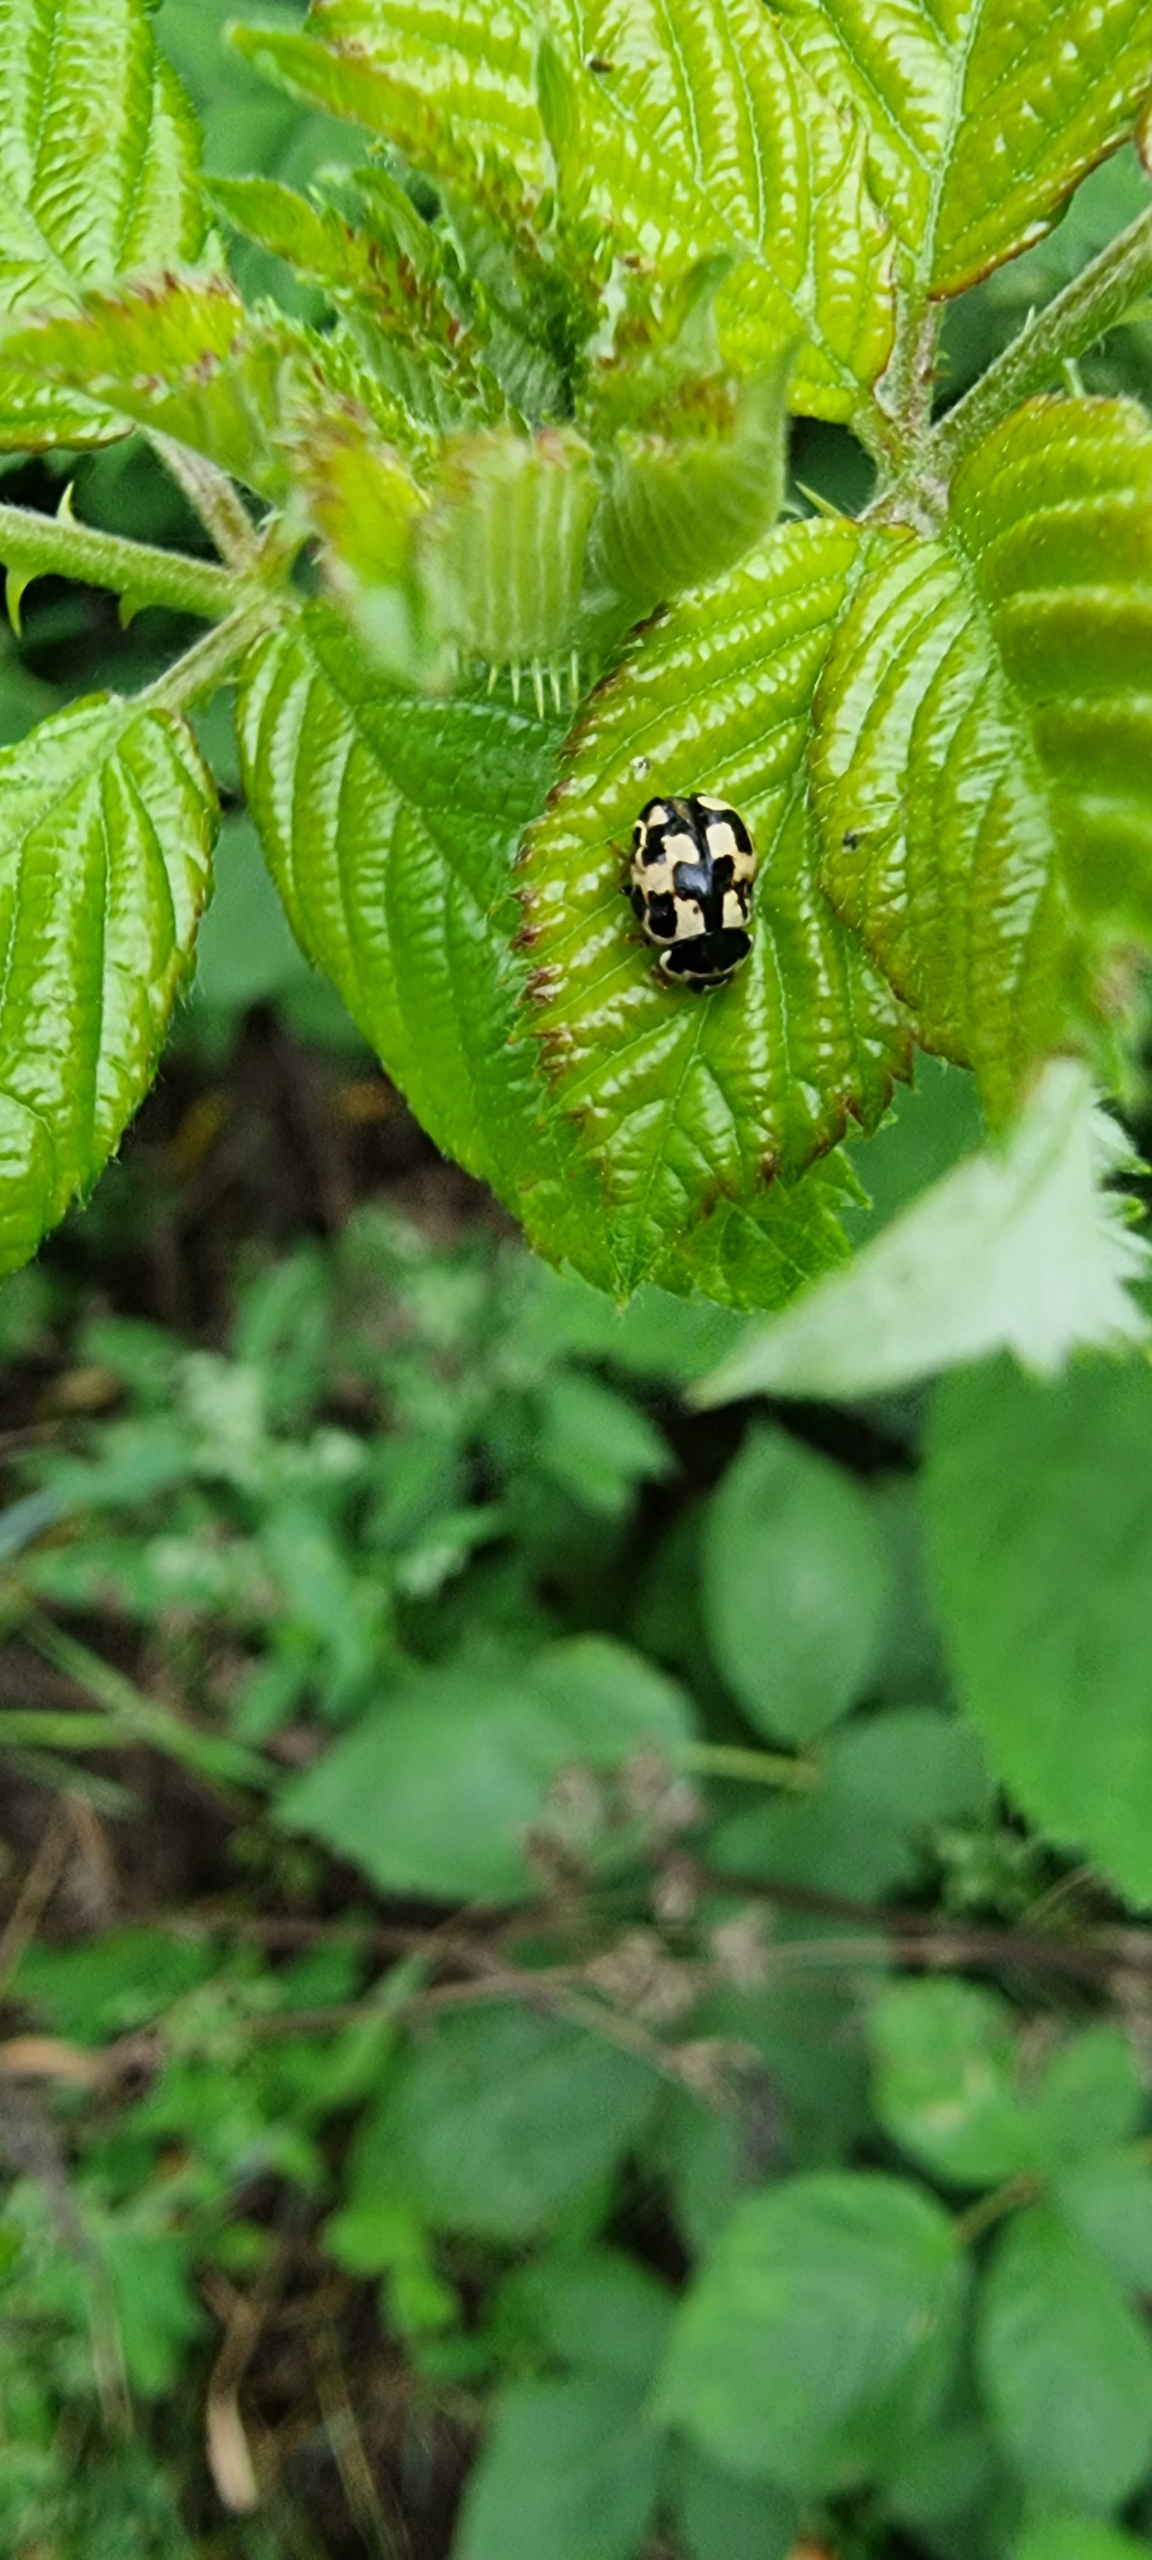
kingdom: Animalia
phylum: Arthropoda
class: Insecta
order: Coleoptera
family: Coccinellidae
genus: Propylaea
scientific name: Propylaea quatuordecimpunctata
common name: Skakbræt
